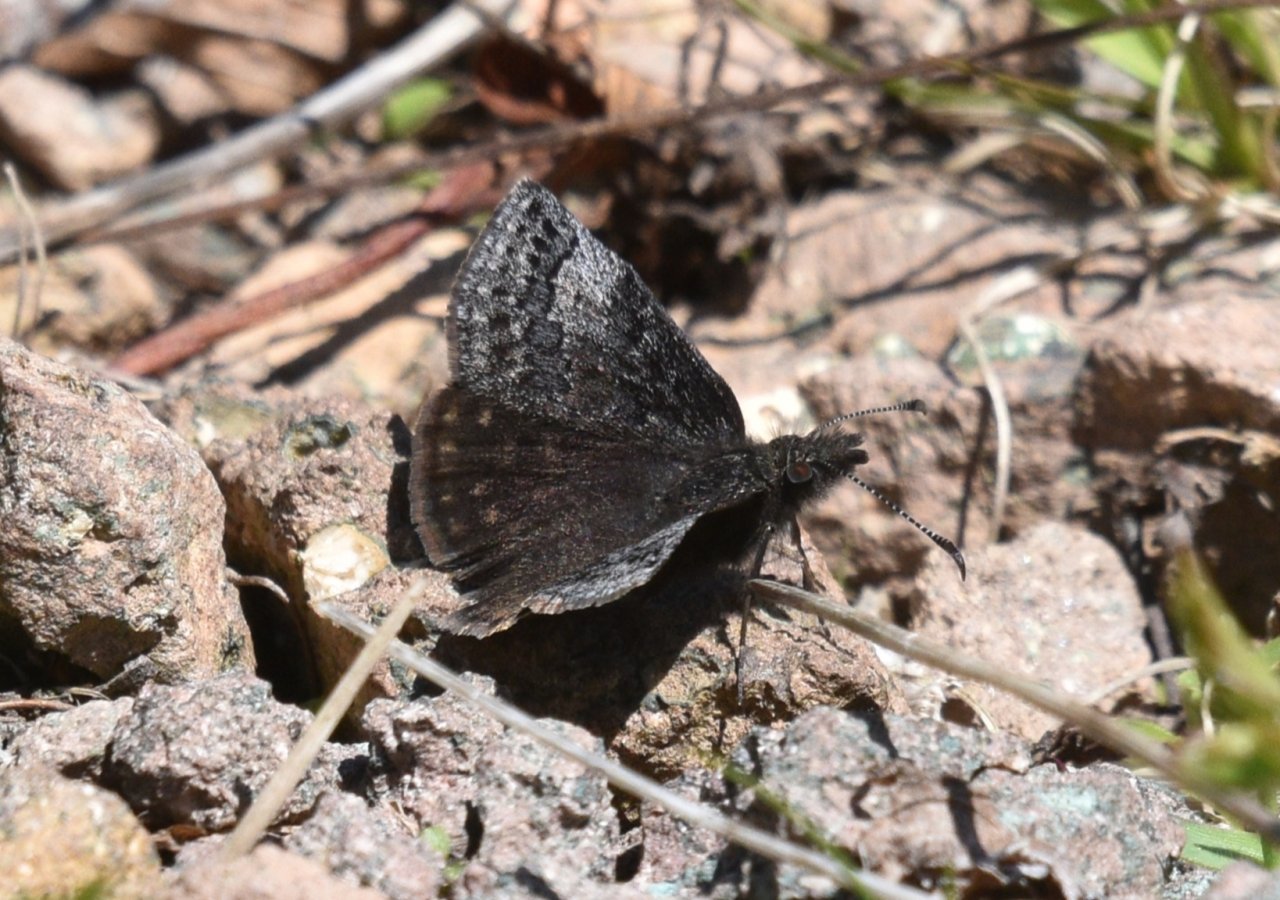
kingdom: Animalia
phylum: Arthropoda
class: Insecta
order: Lepidoptera
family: Hesperiidae
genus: Erynnis
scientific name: Erynnis icelus
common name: Dreamy Duskywing
